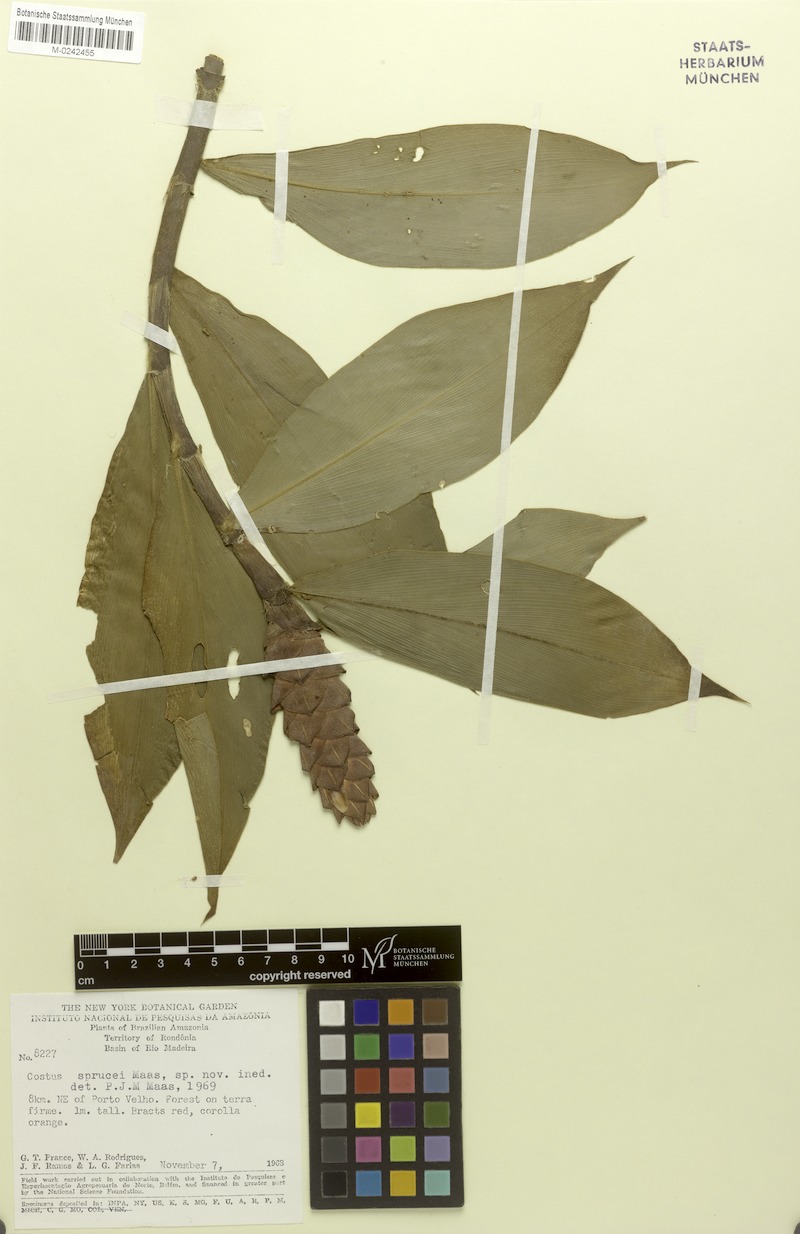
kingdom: Plantae
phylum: Tracheophyta
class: Liliopsida
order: Zingiberales
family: Costaceae
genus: Costus
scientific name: Costus sprucei
